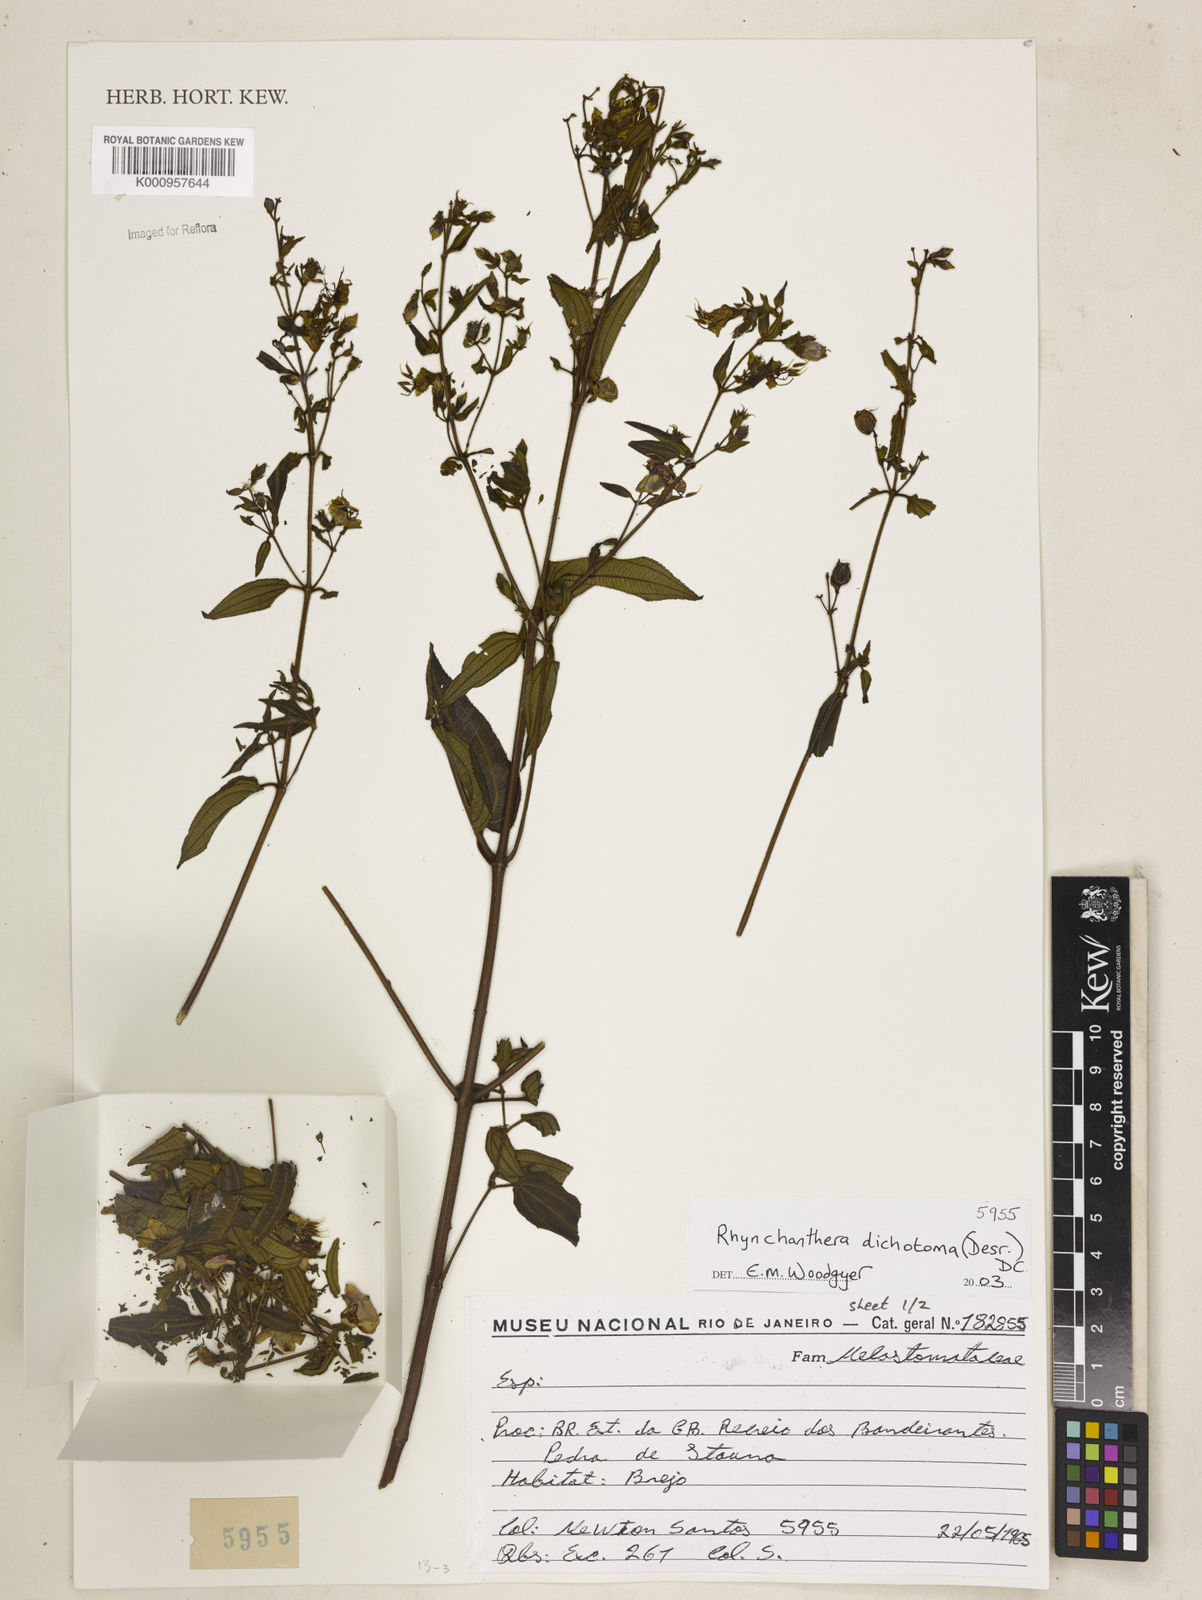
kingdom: Plantae
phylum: Tracheophyta
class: Magnoliopsida
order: Myrtales
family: Melastomataceae
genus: Rhynchanthera
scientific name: Rhynchanthera dichotoma
